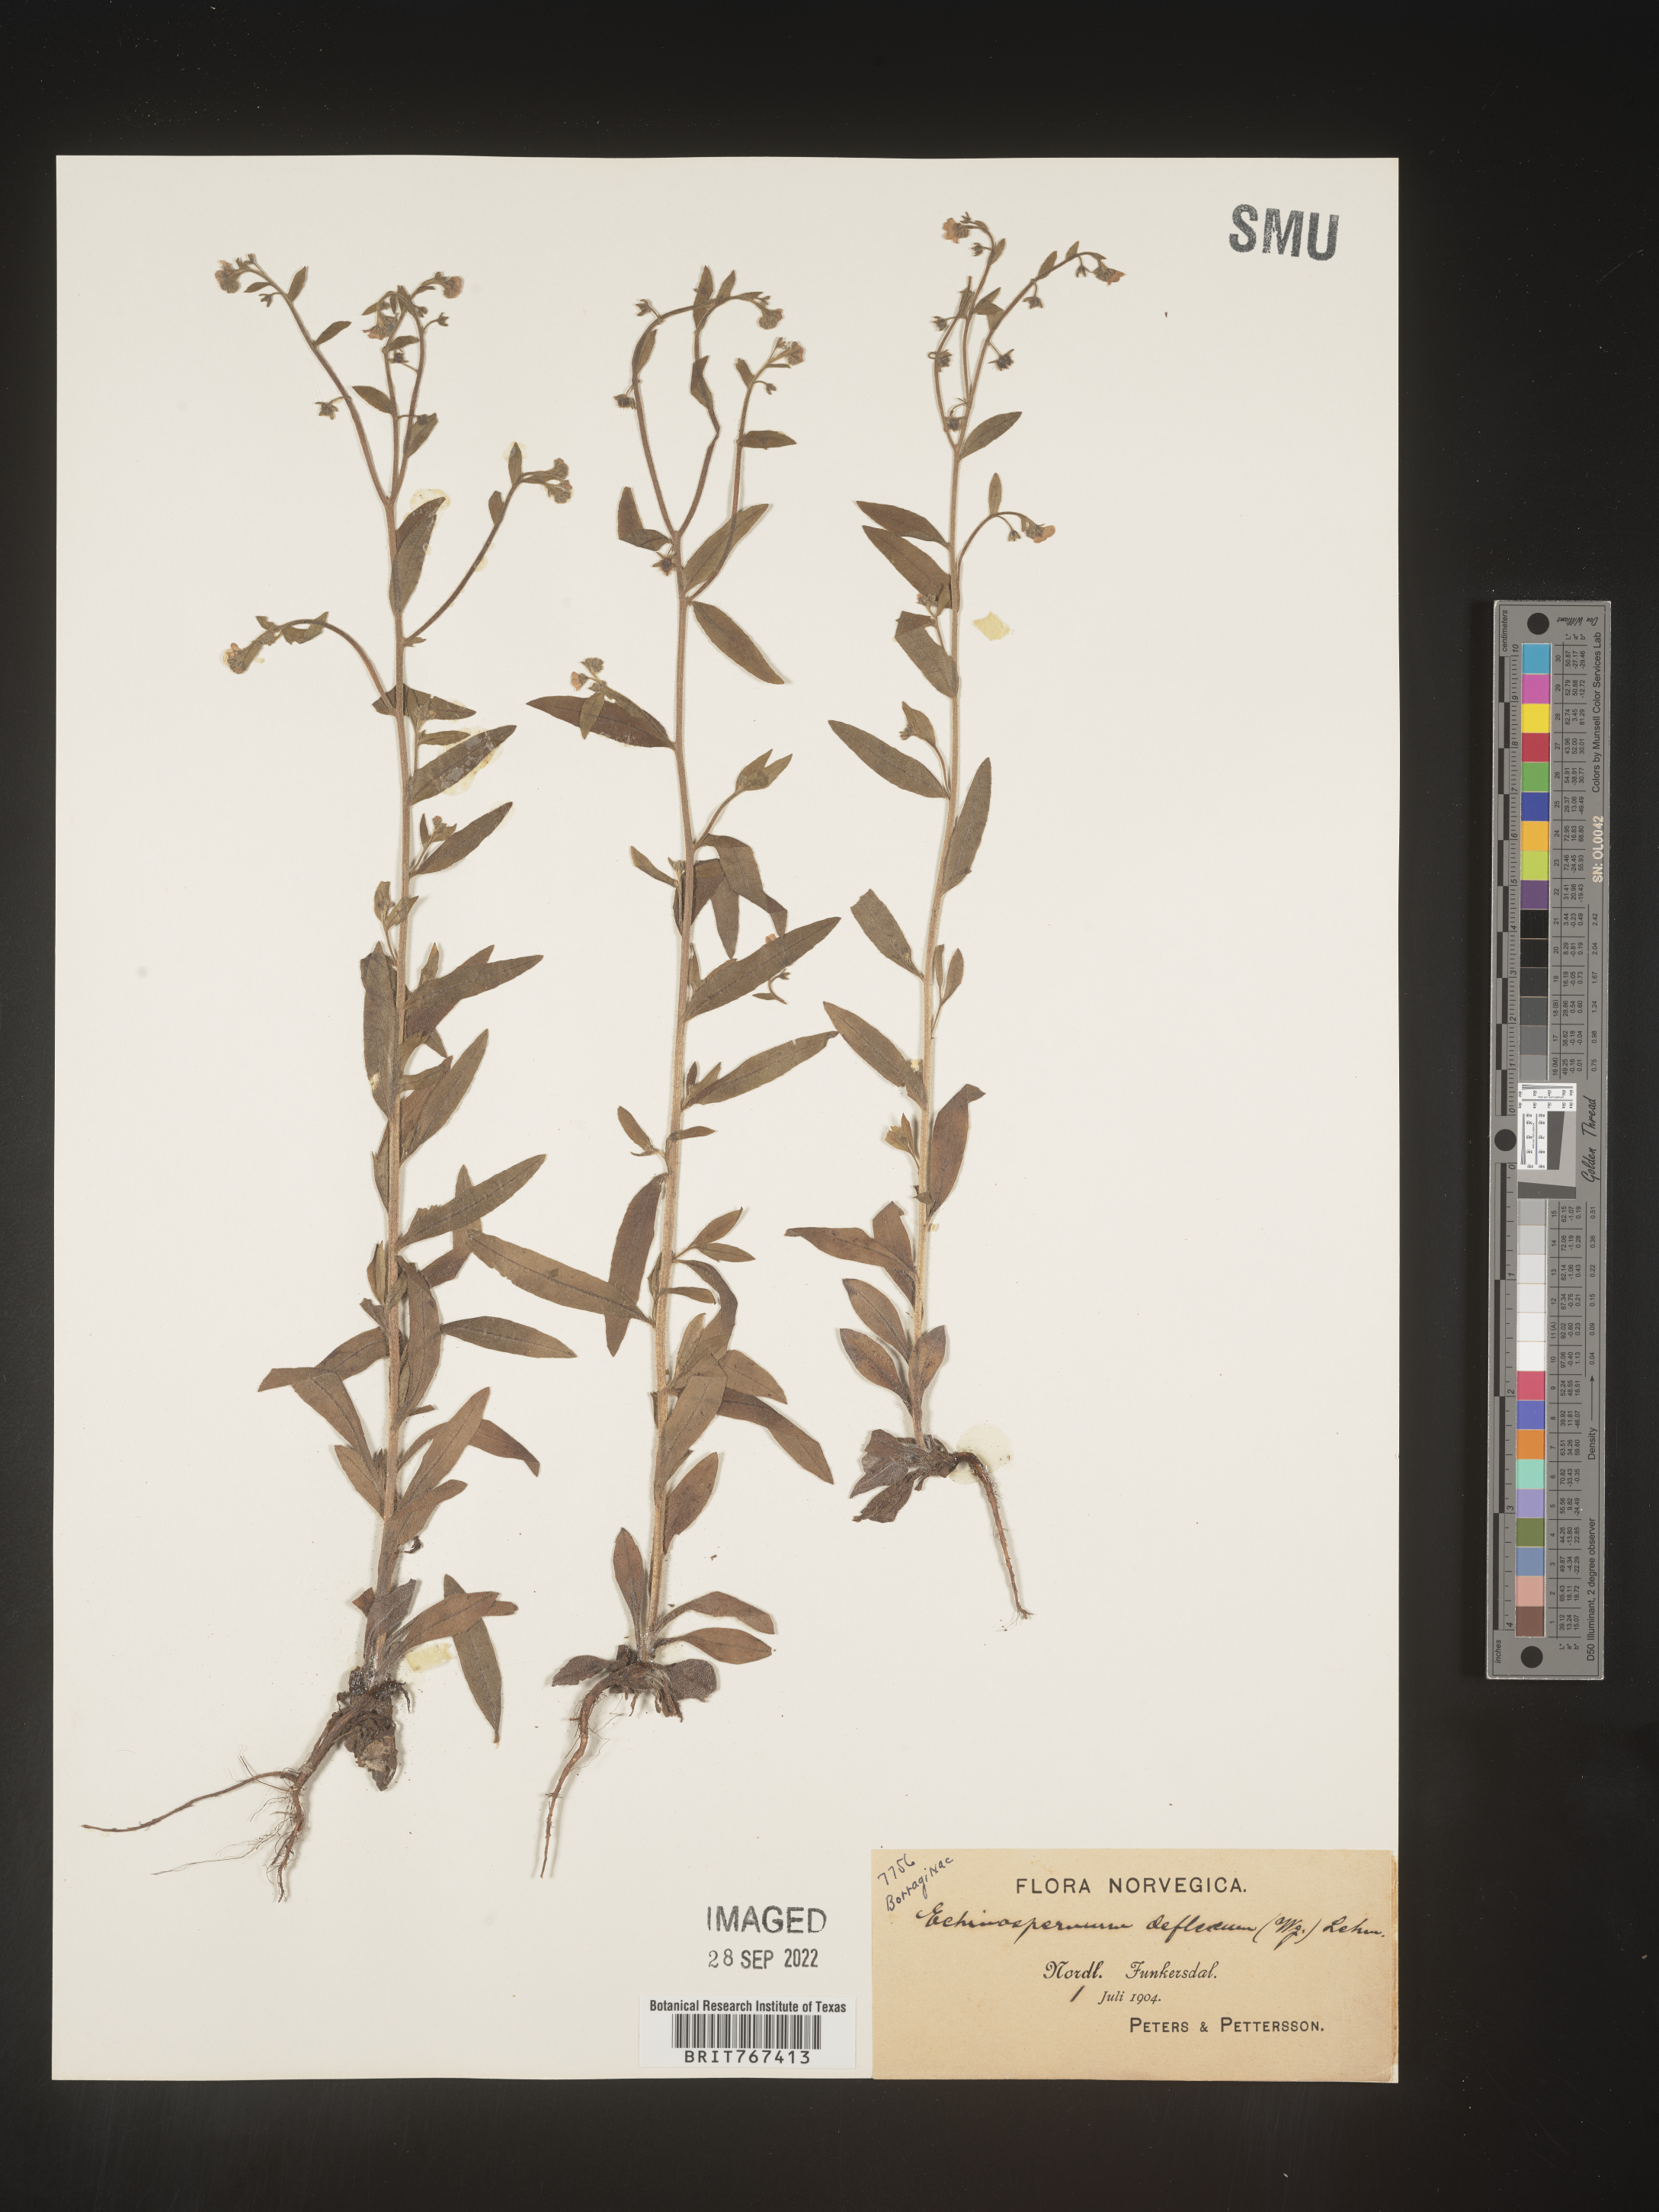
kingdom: Plantae
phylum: Tracheophyta
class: Magnoliopsida
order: Boraginales
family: Boraginaceae
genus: Hackelia
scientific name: Hackelia
